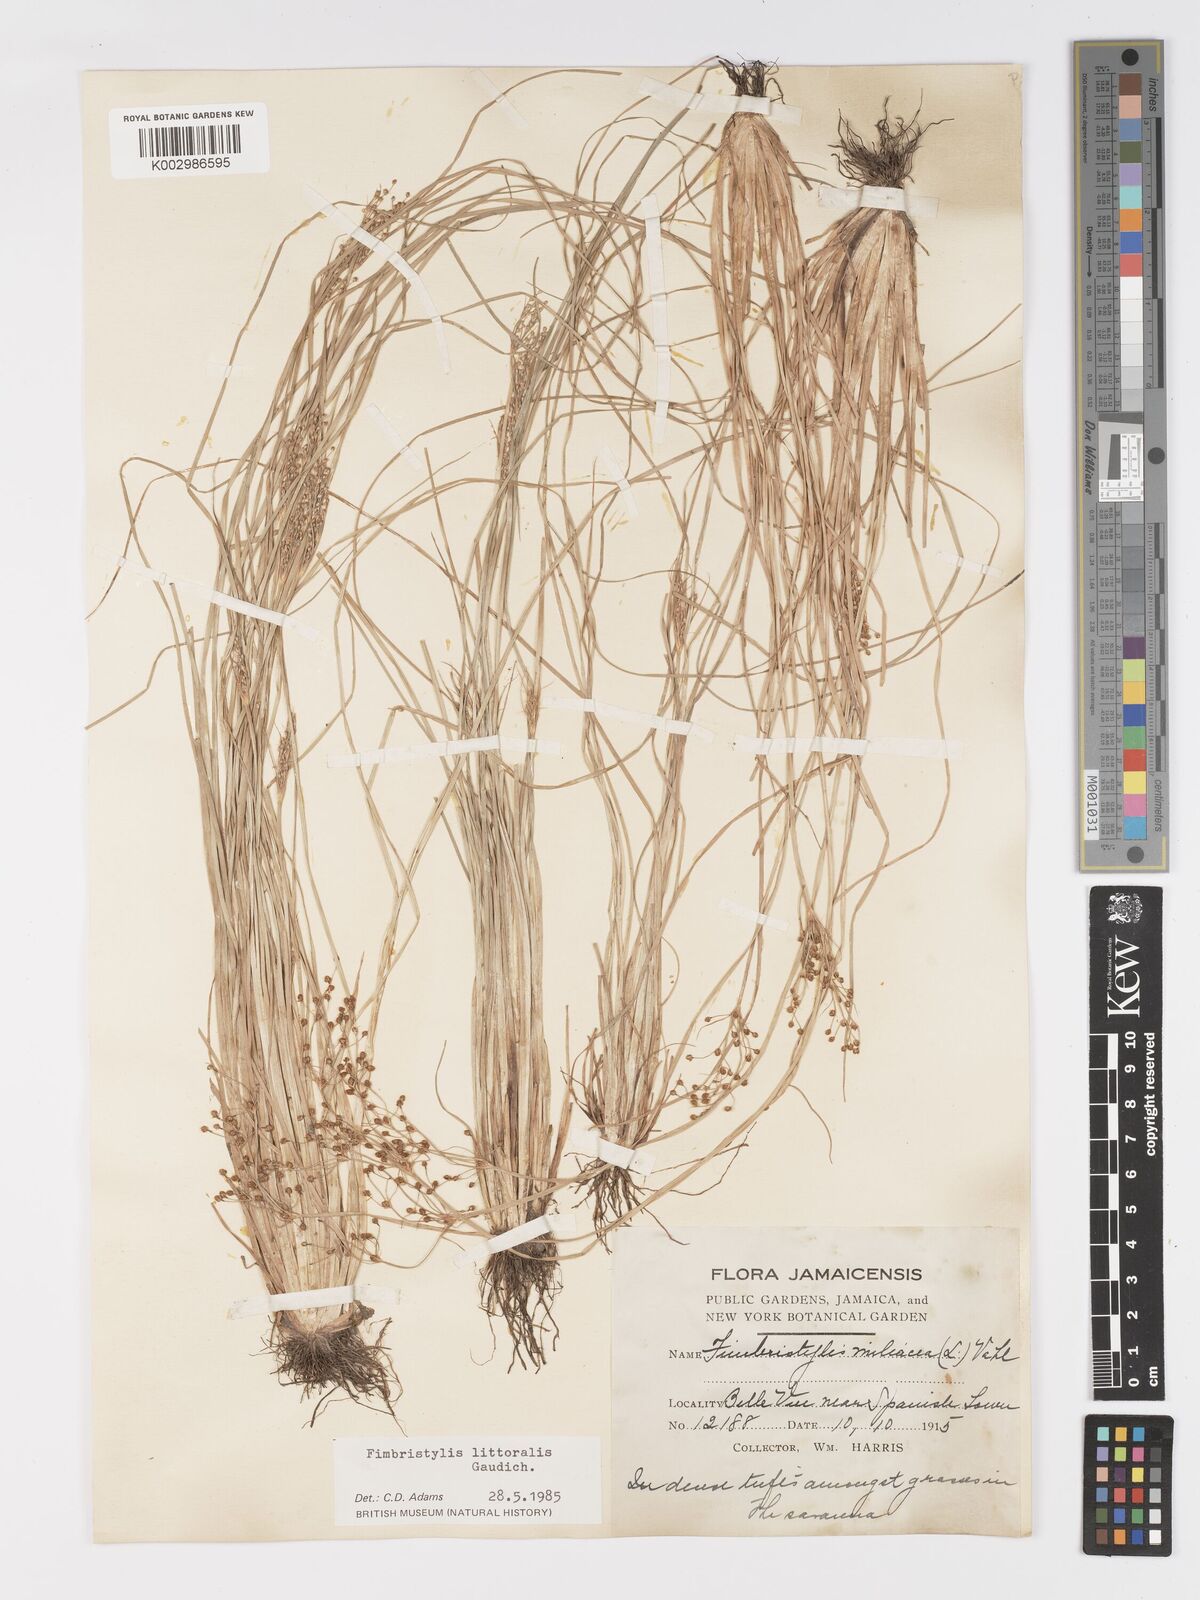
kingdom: Plantae
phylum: Tracheophyta
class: Liliopsida
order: Poales
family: Cyperaceae
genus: Fimbristylis
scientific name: Fimbristylis littoralis
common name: Fimbry
